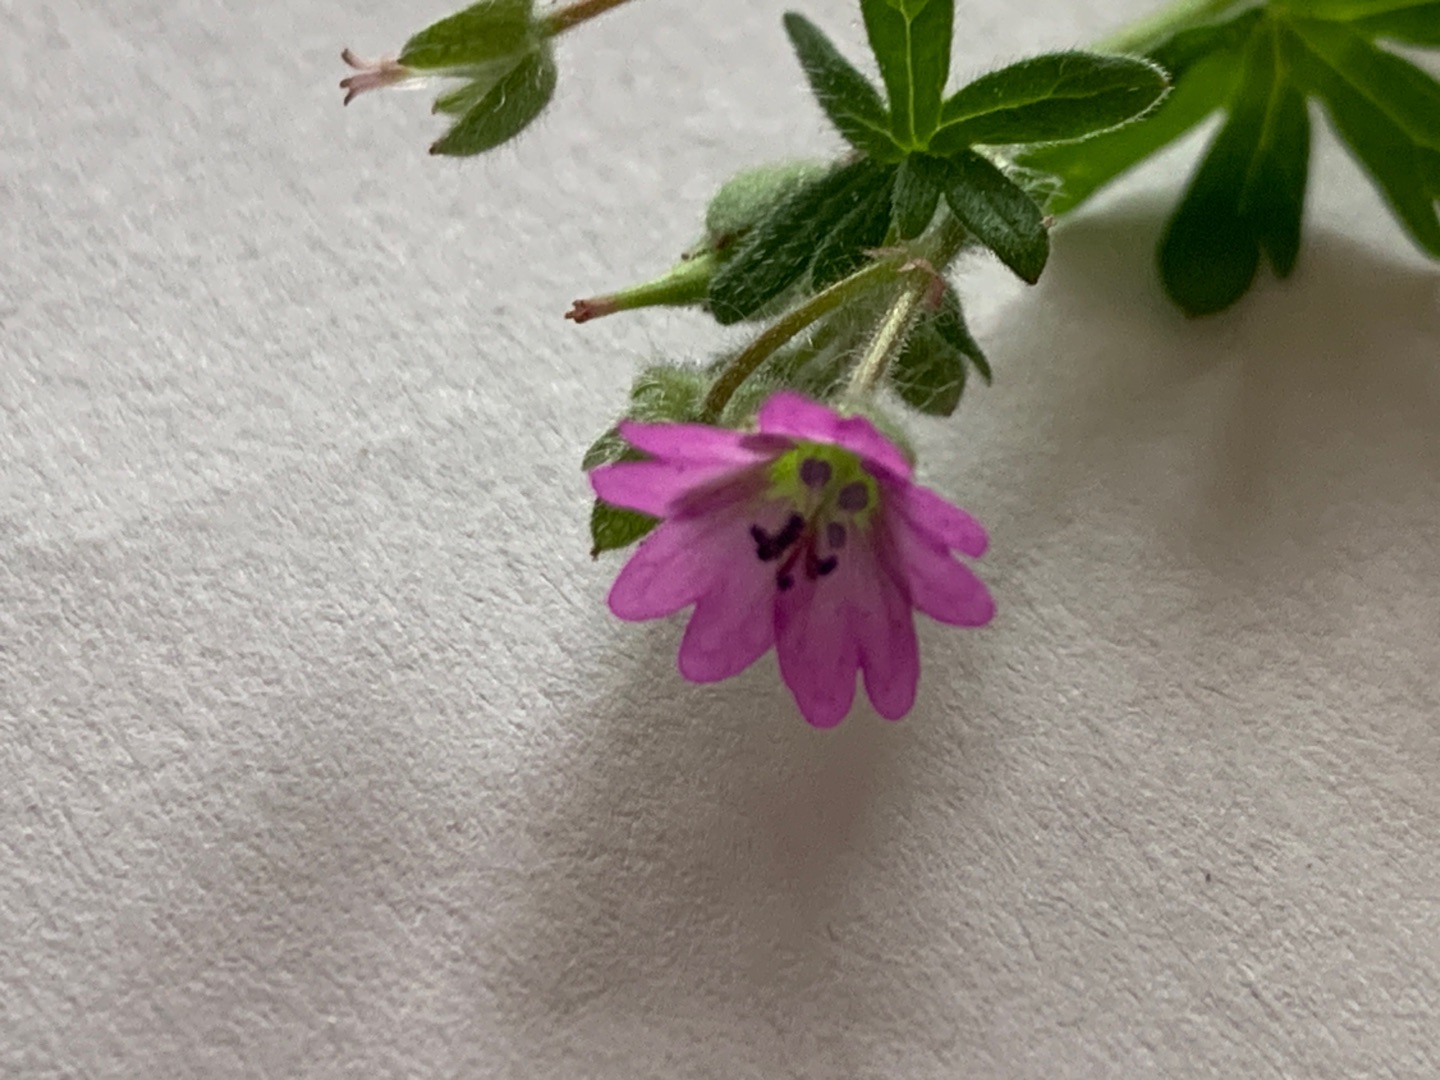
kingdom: Plantae
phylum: Tracheophyta
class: Magnoliopsida
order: Geraniales
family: Geraniaceae
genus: Geranium
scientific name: Geranium molle
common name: Blød storkenæb
